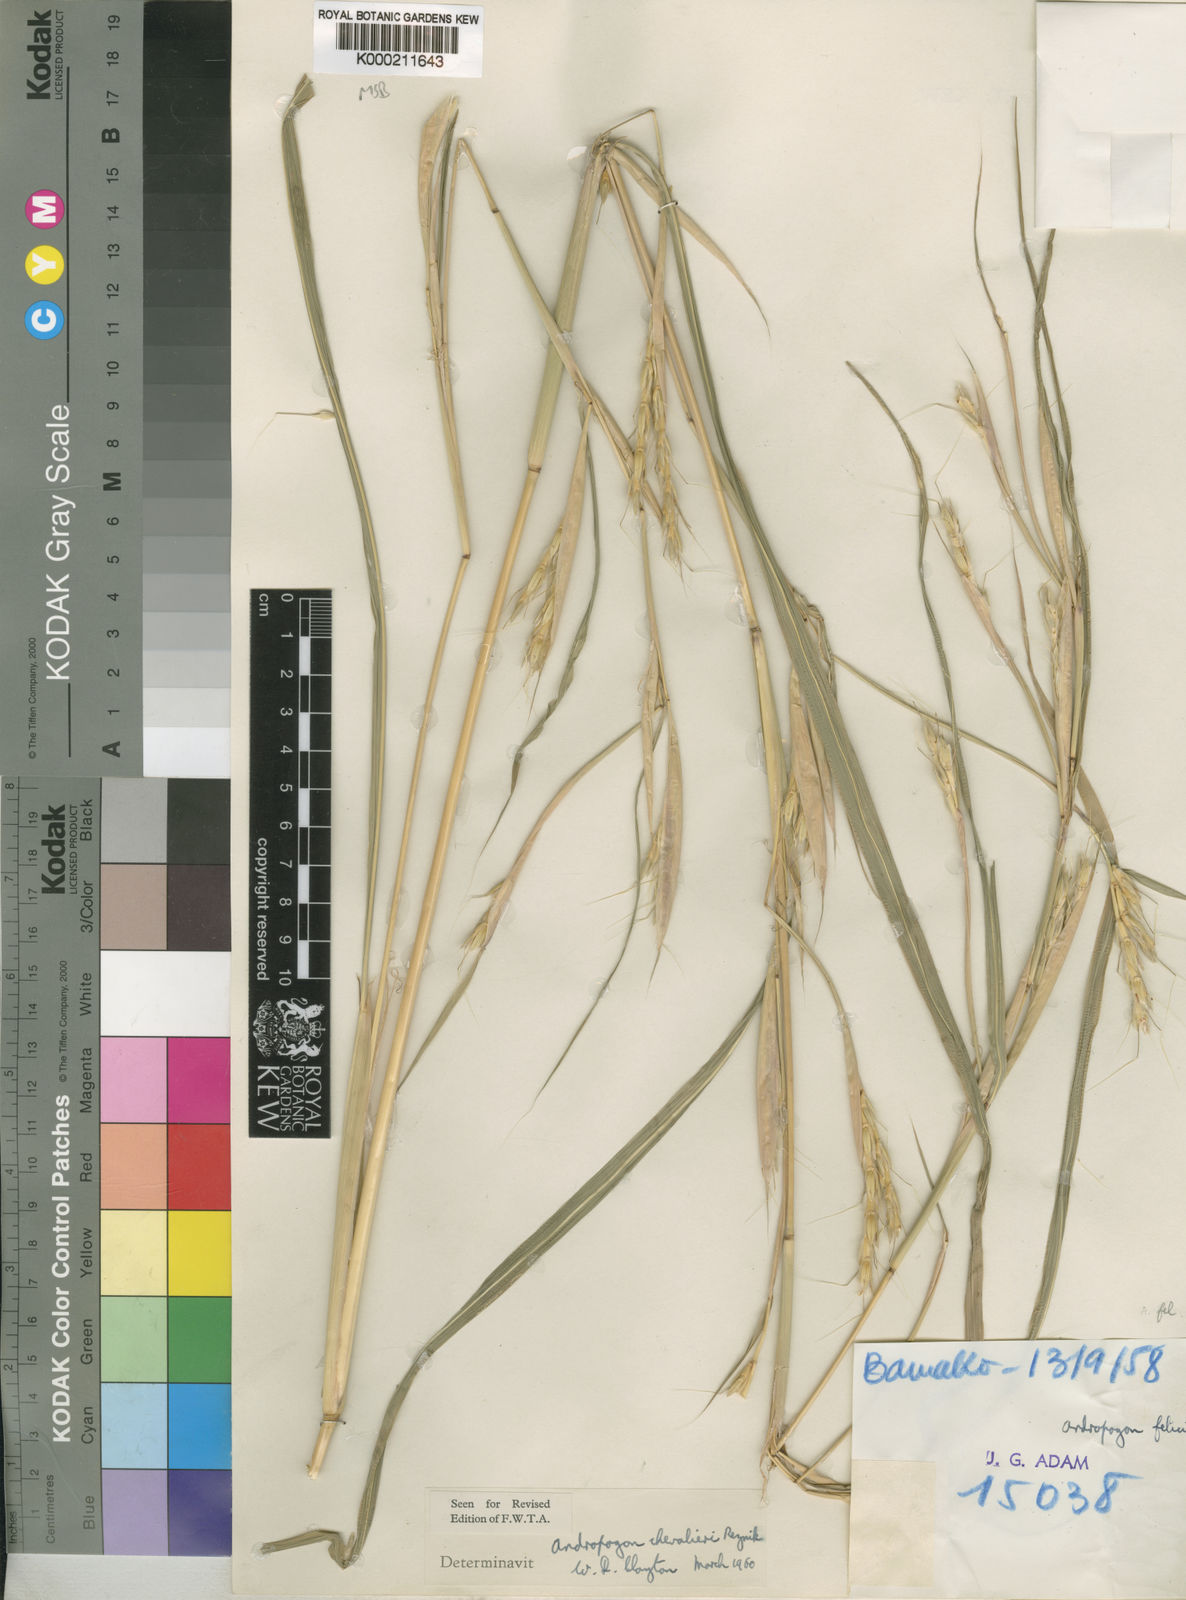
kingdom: Plantae
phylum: Tracheophyta
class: Liliopsida
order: Poales
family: Poaceae
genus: Andropogon
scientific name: Andropogon chevalieri
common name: Beardgrass
